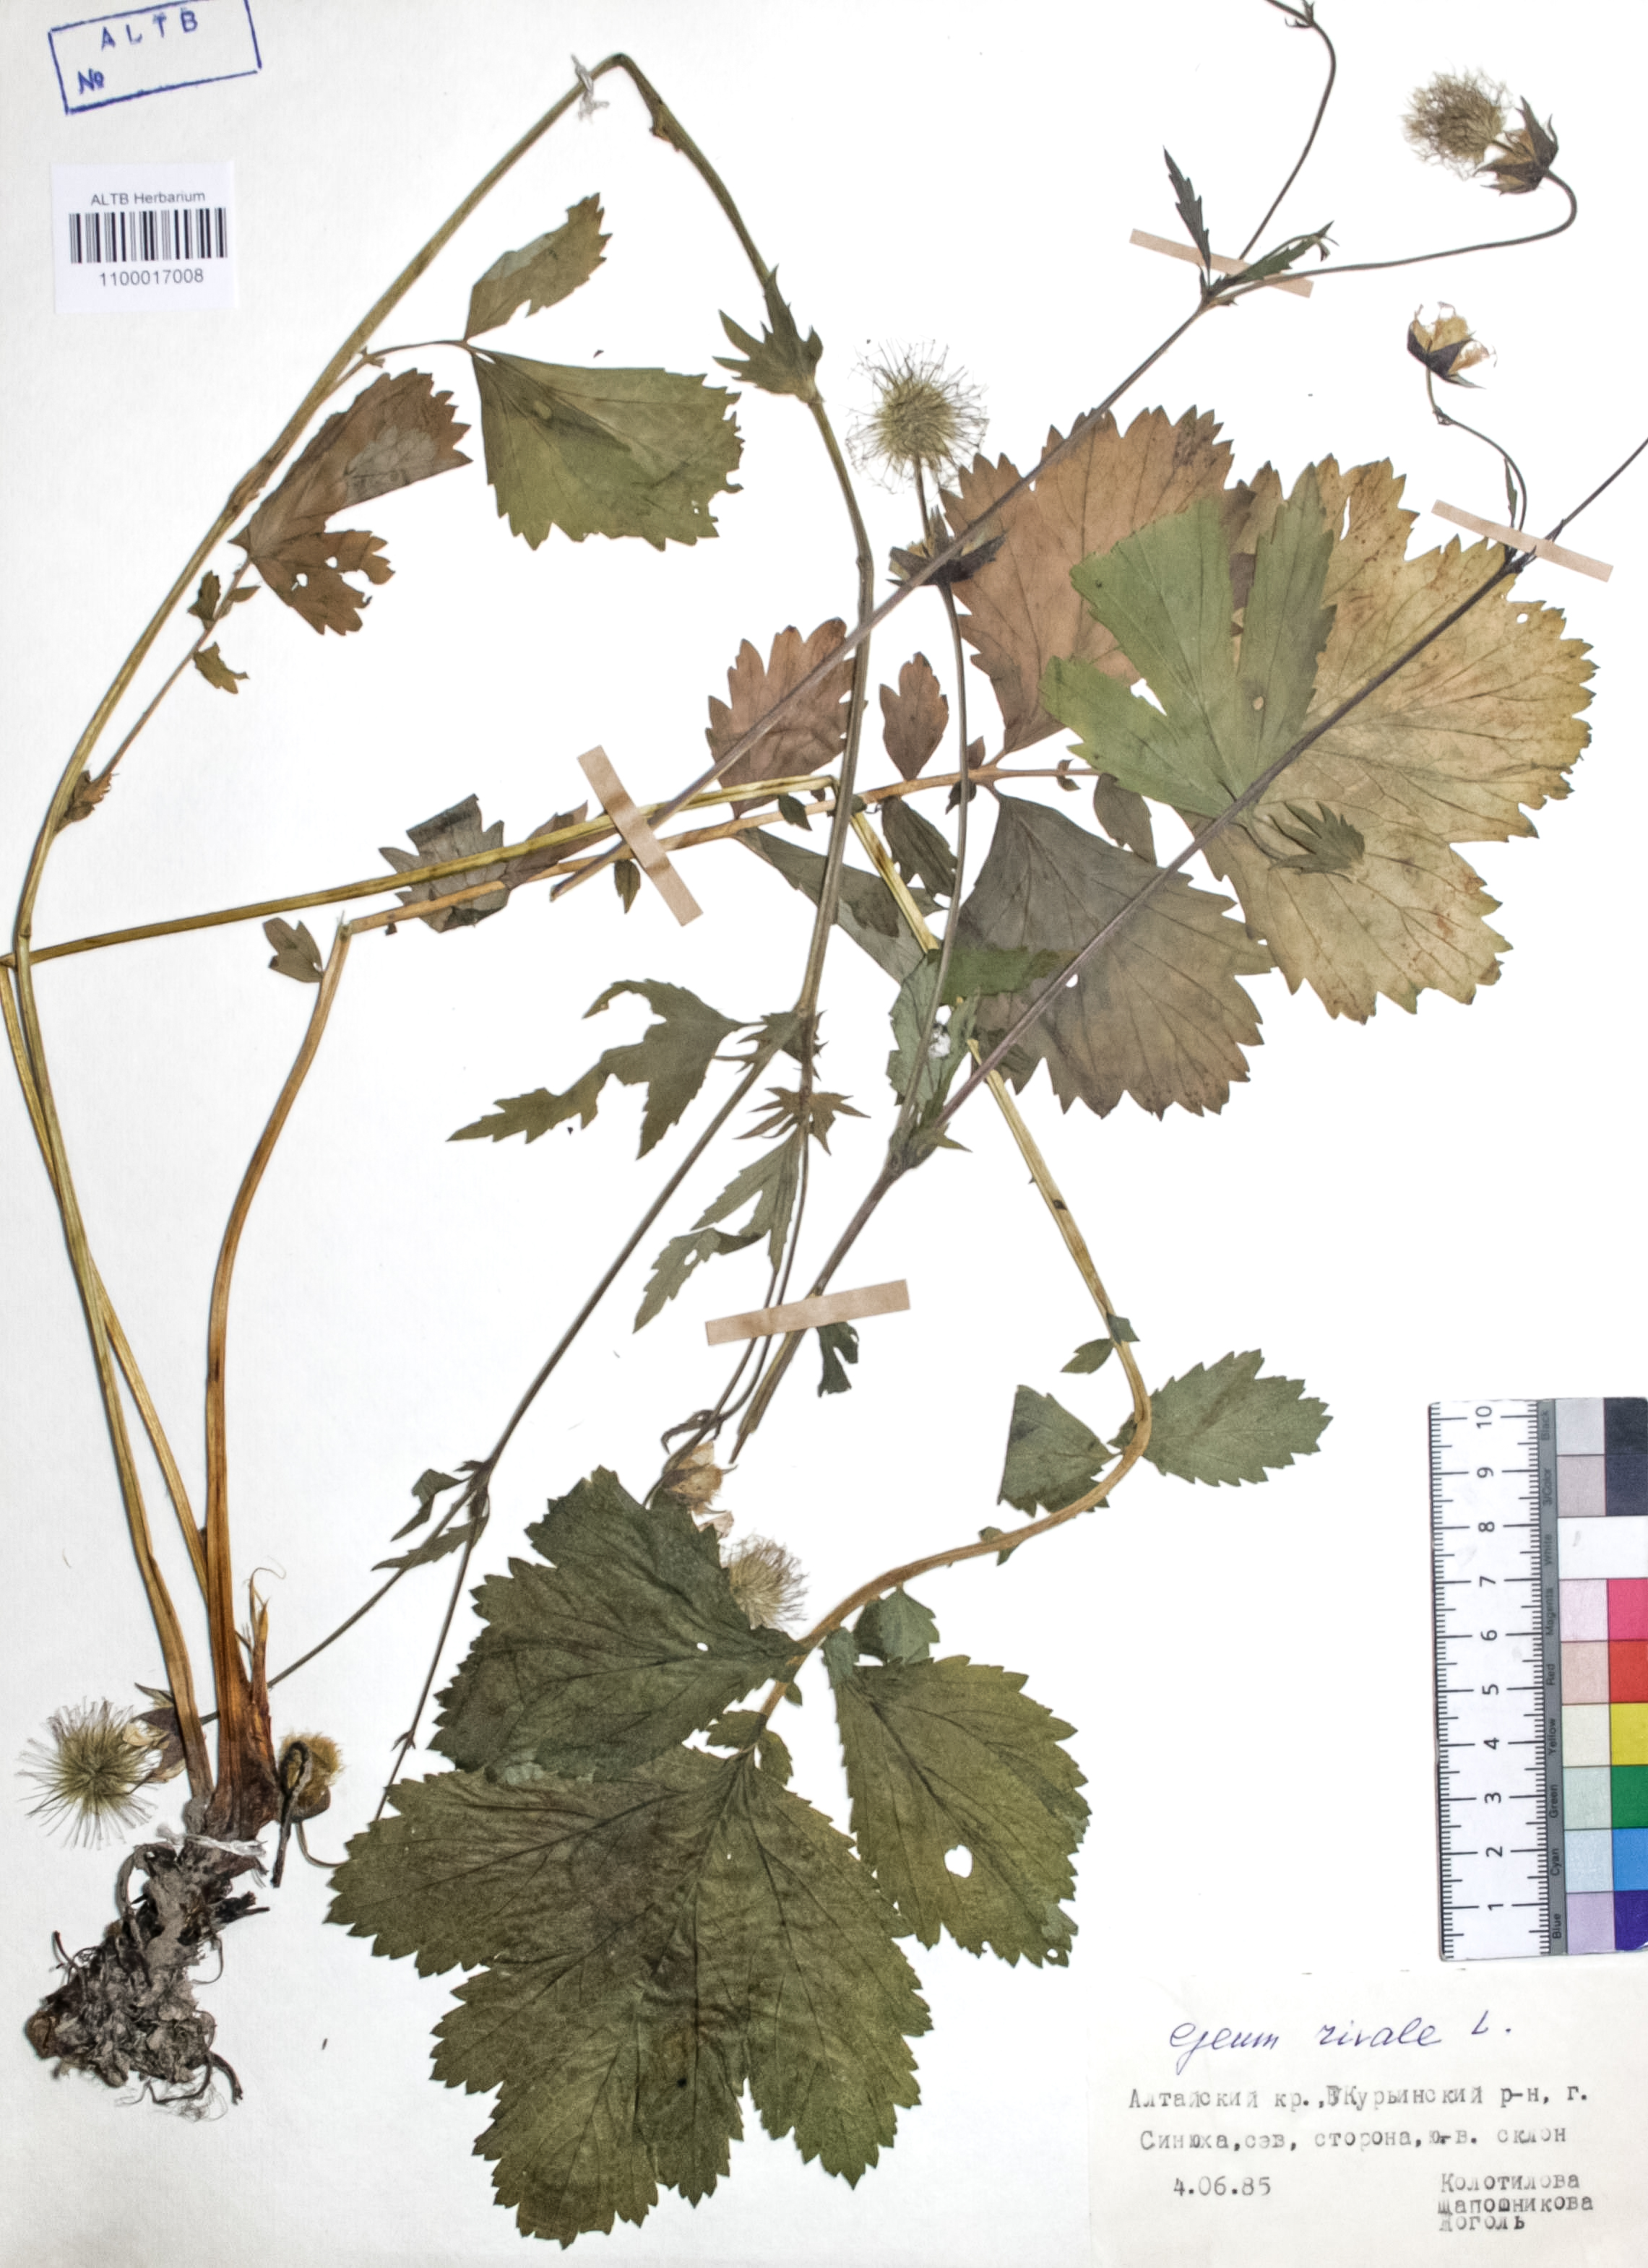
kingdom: Plantae
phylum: Tracheophyta
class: Magnoliopsida
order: Rosales
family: Rosaceae
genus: Geum
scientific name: Geum rivale
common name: Water avens
